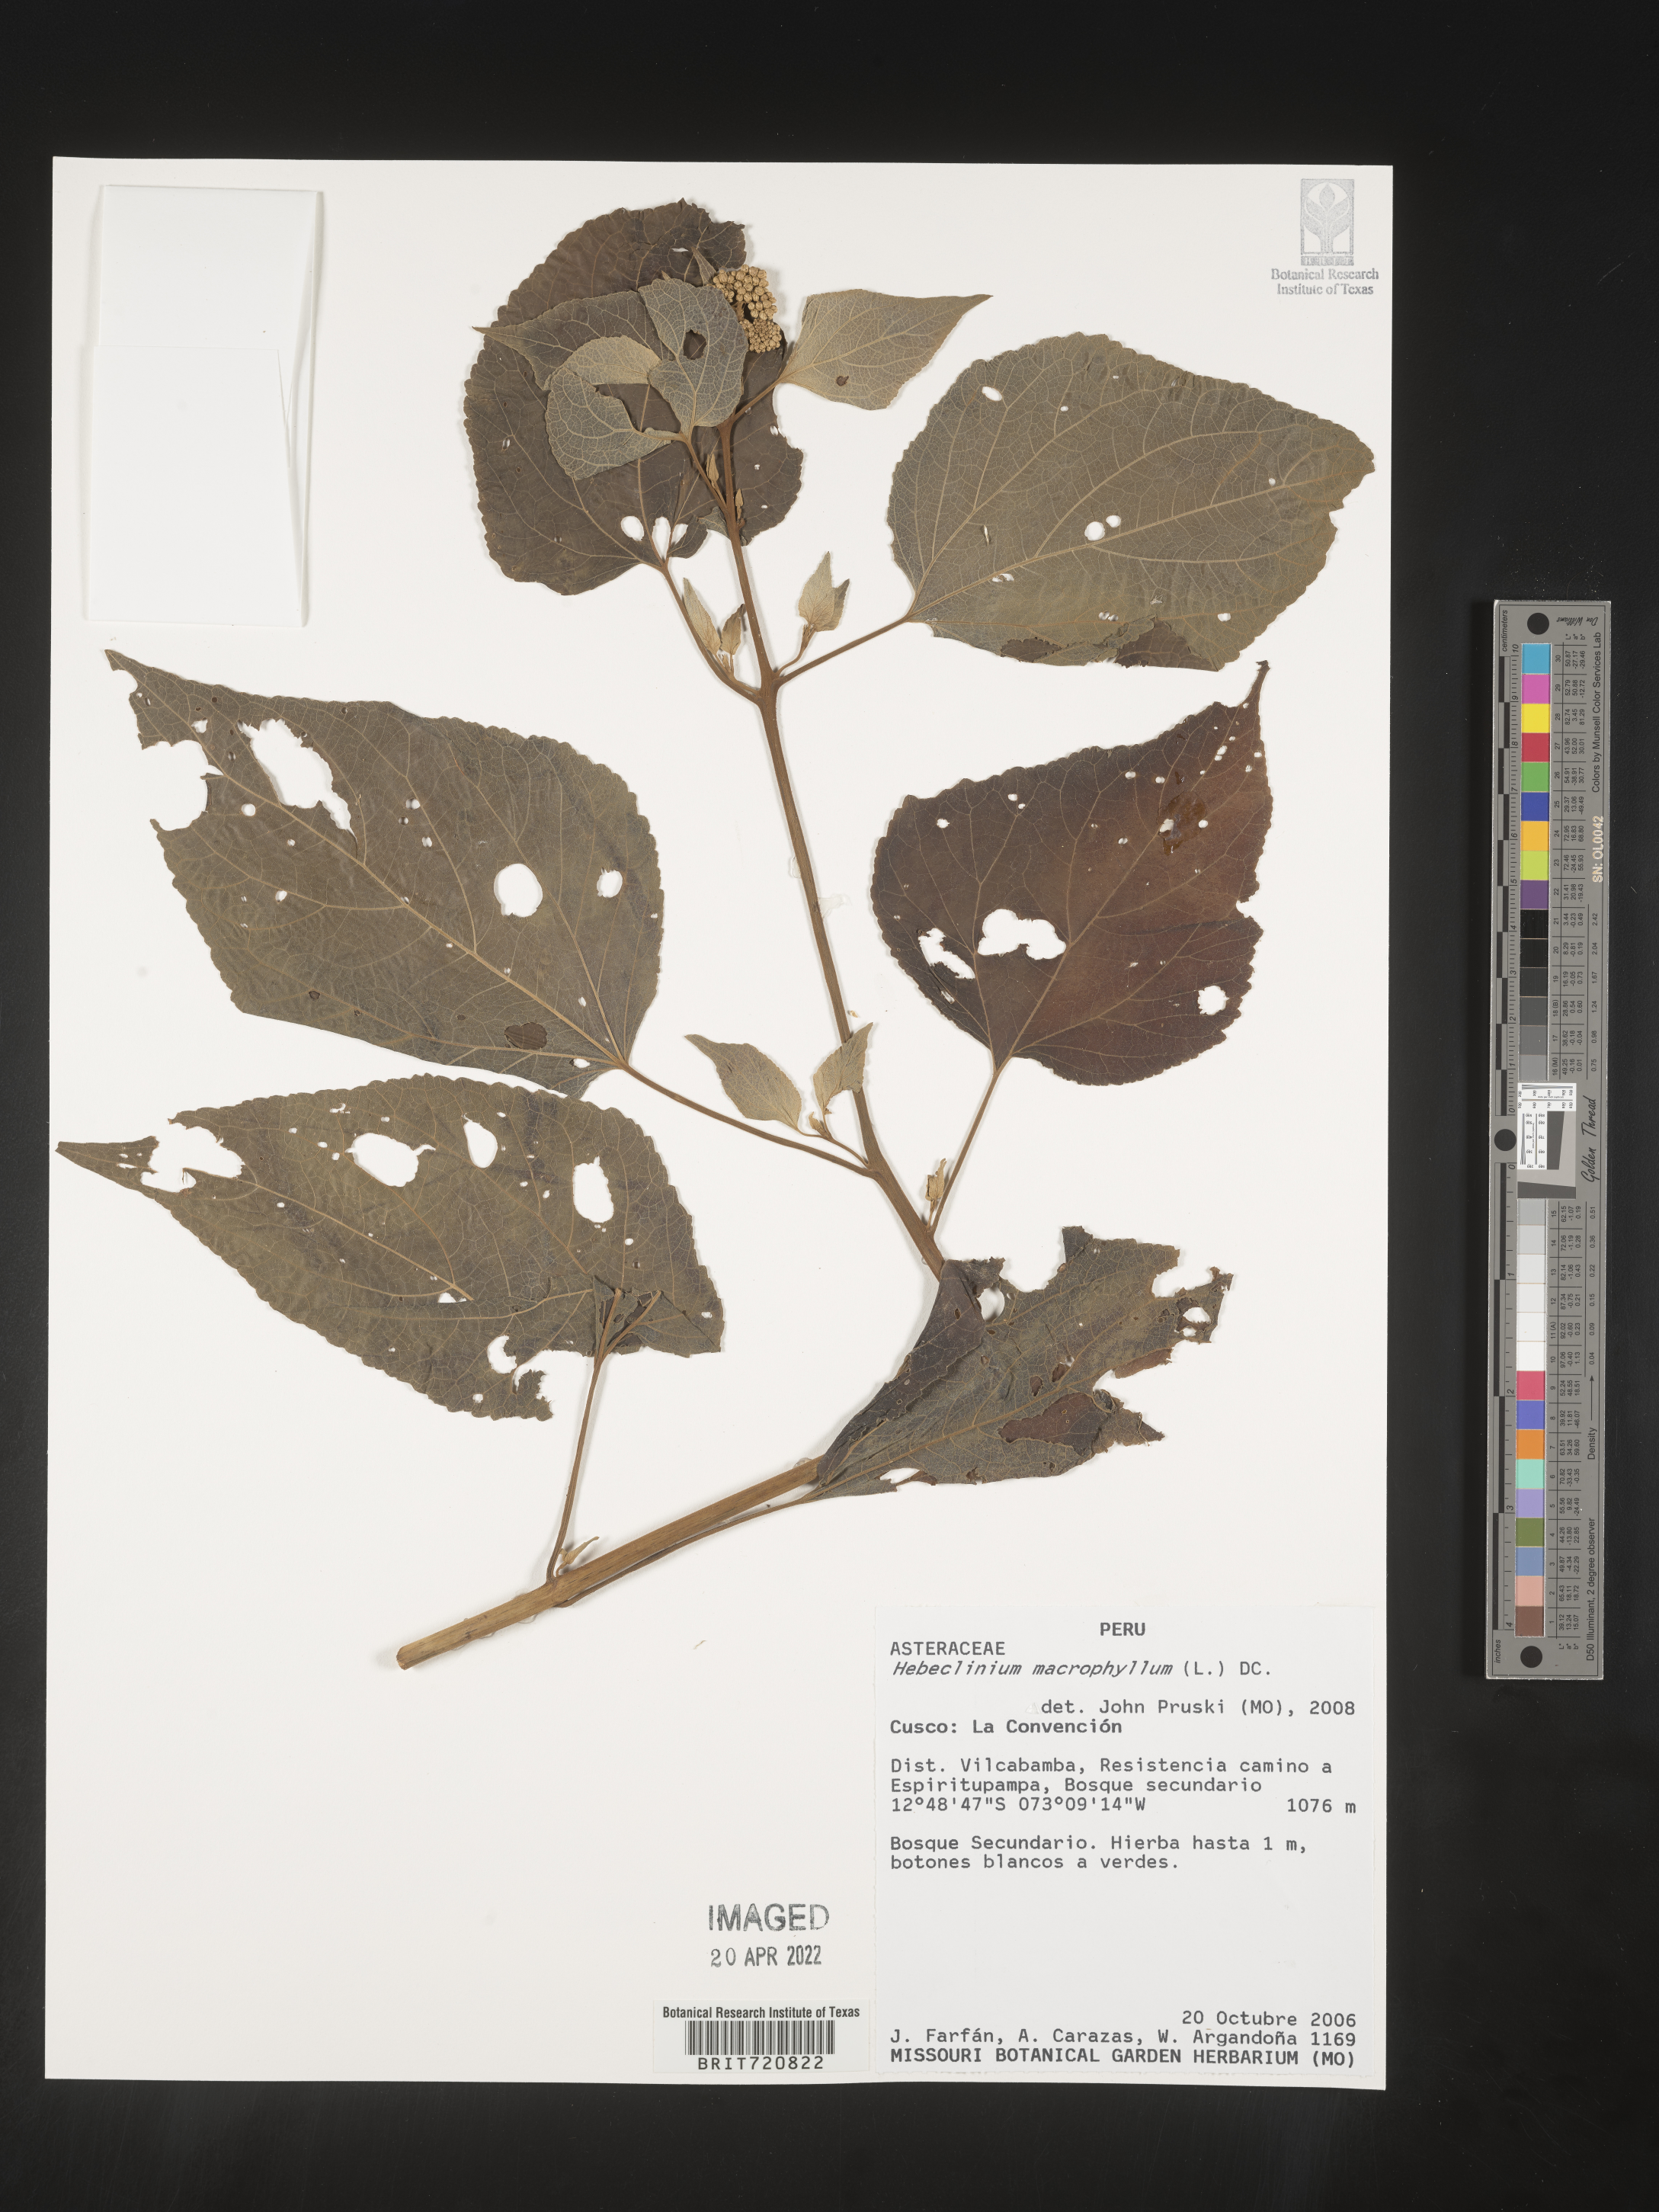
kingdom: Plantae
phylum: Tracheophyta
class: Magnoliopsida
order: Asterales
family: Asteraceae
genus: Hebeclinium
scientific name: Hebeclinium
